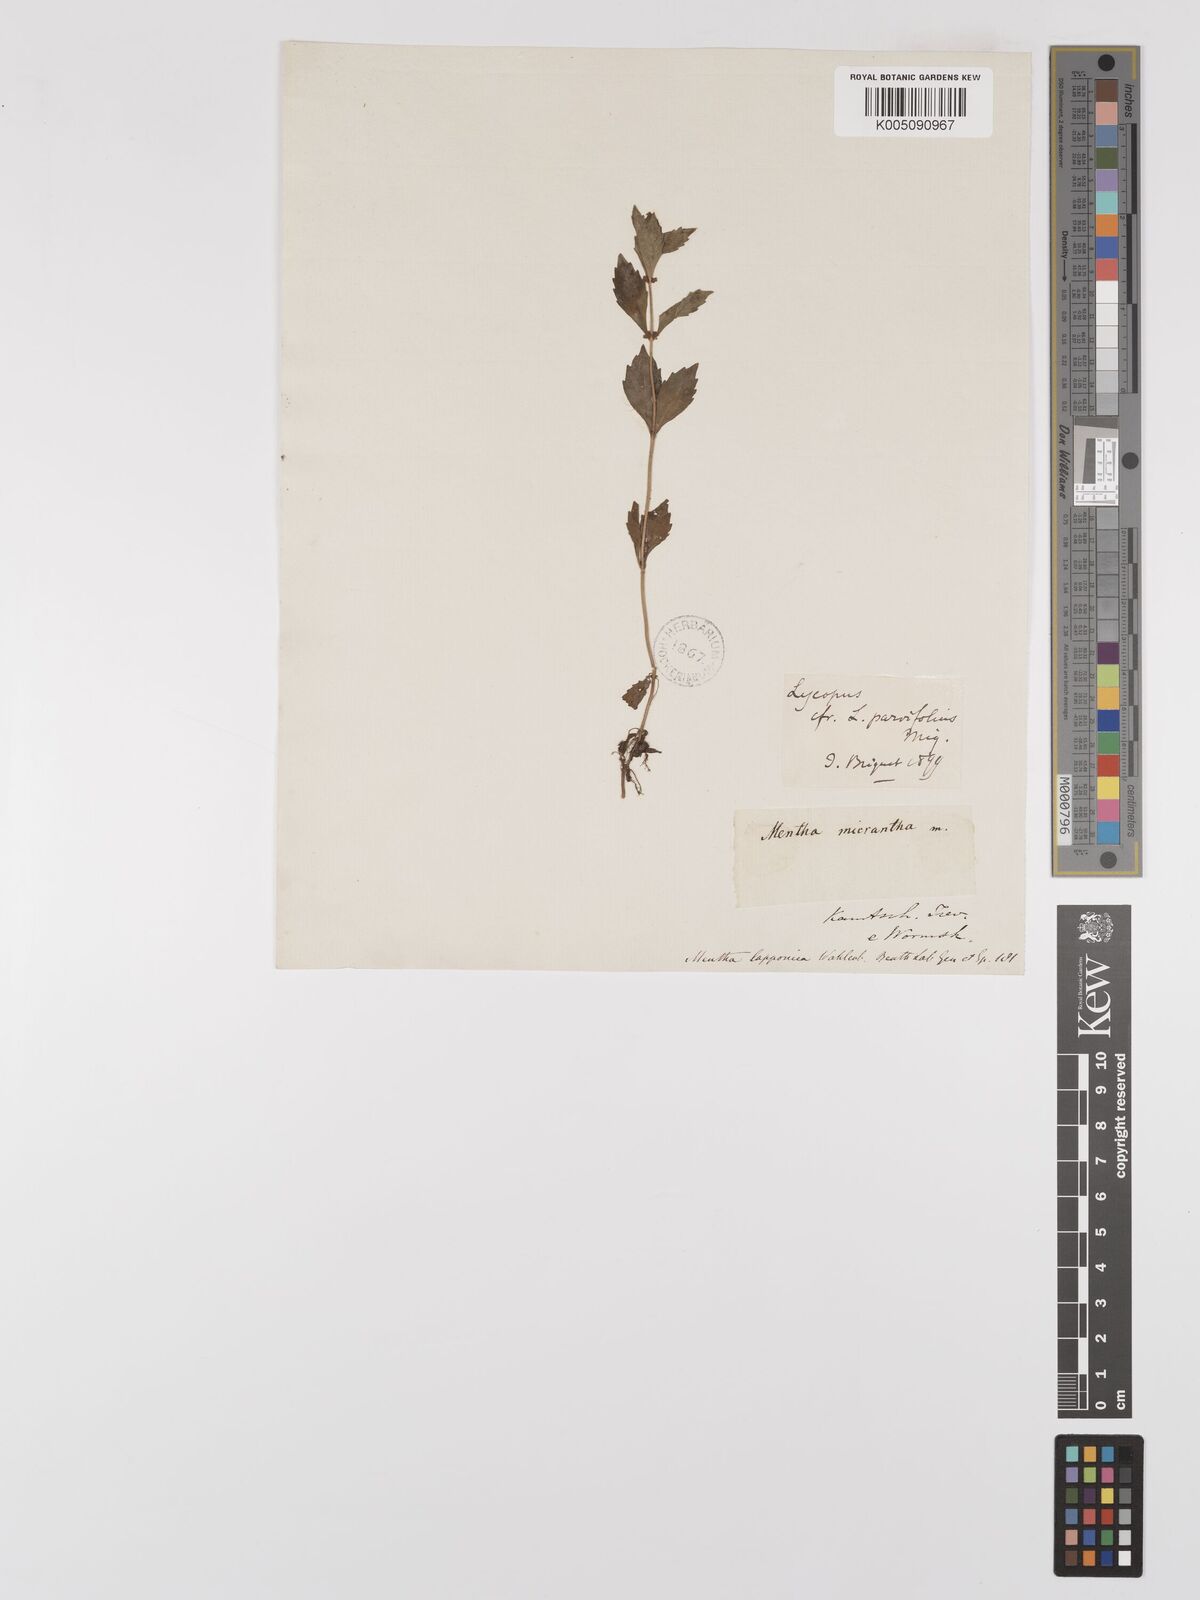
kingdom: Plantae
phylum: Tracheophyta
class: Magnoliopsida
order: Lamiales
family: Lamiaceae
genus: Lycopus
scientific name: Lycopus uniflorus
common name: Northern bugleweed
